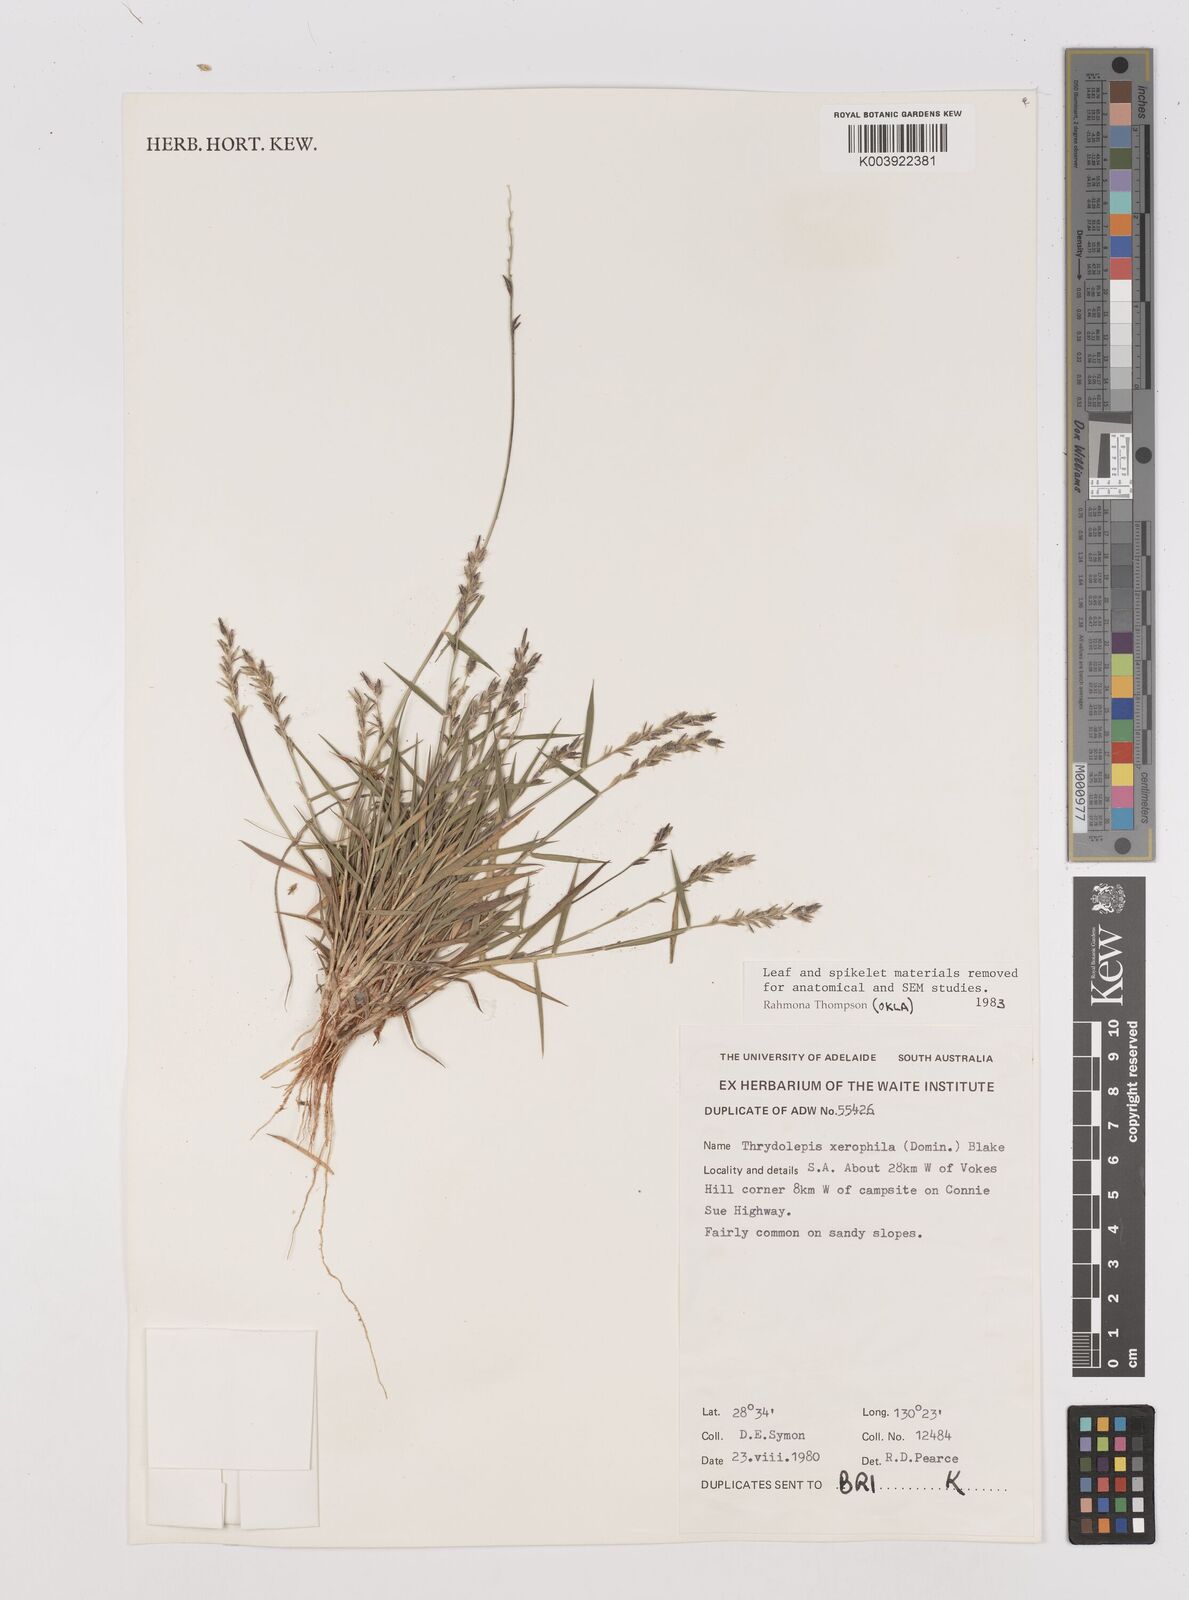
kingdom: Plantae
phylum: Tracheophyta
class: Liliopsida
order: Poales
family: Poaceae
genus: Thyridolepis
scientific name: Thyridolepis xerophila
